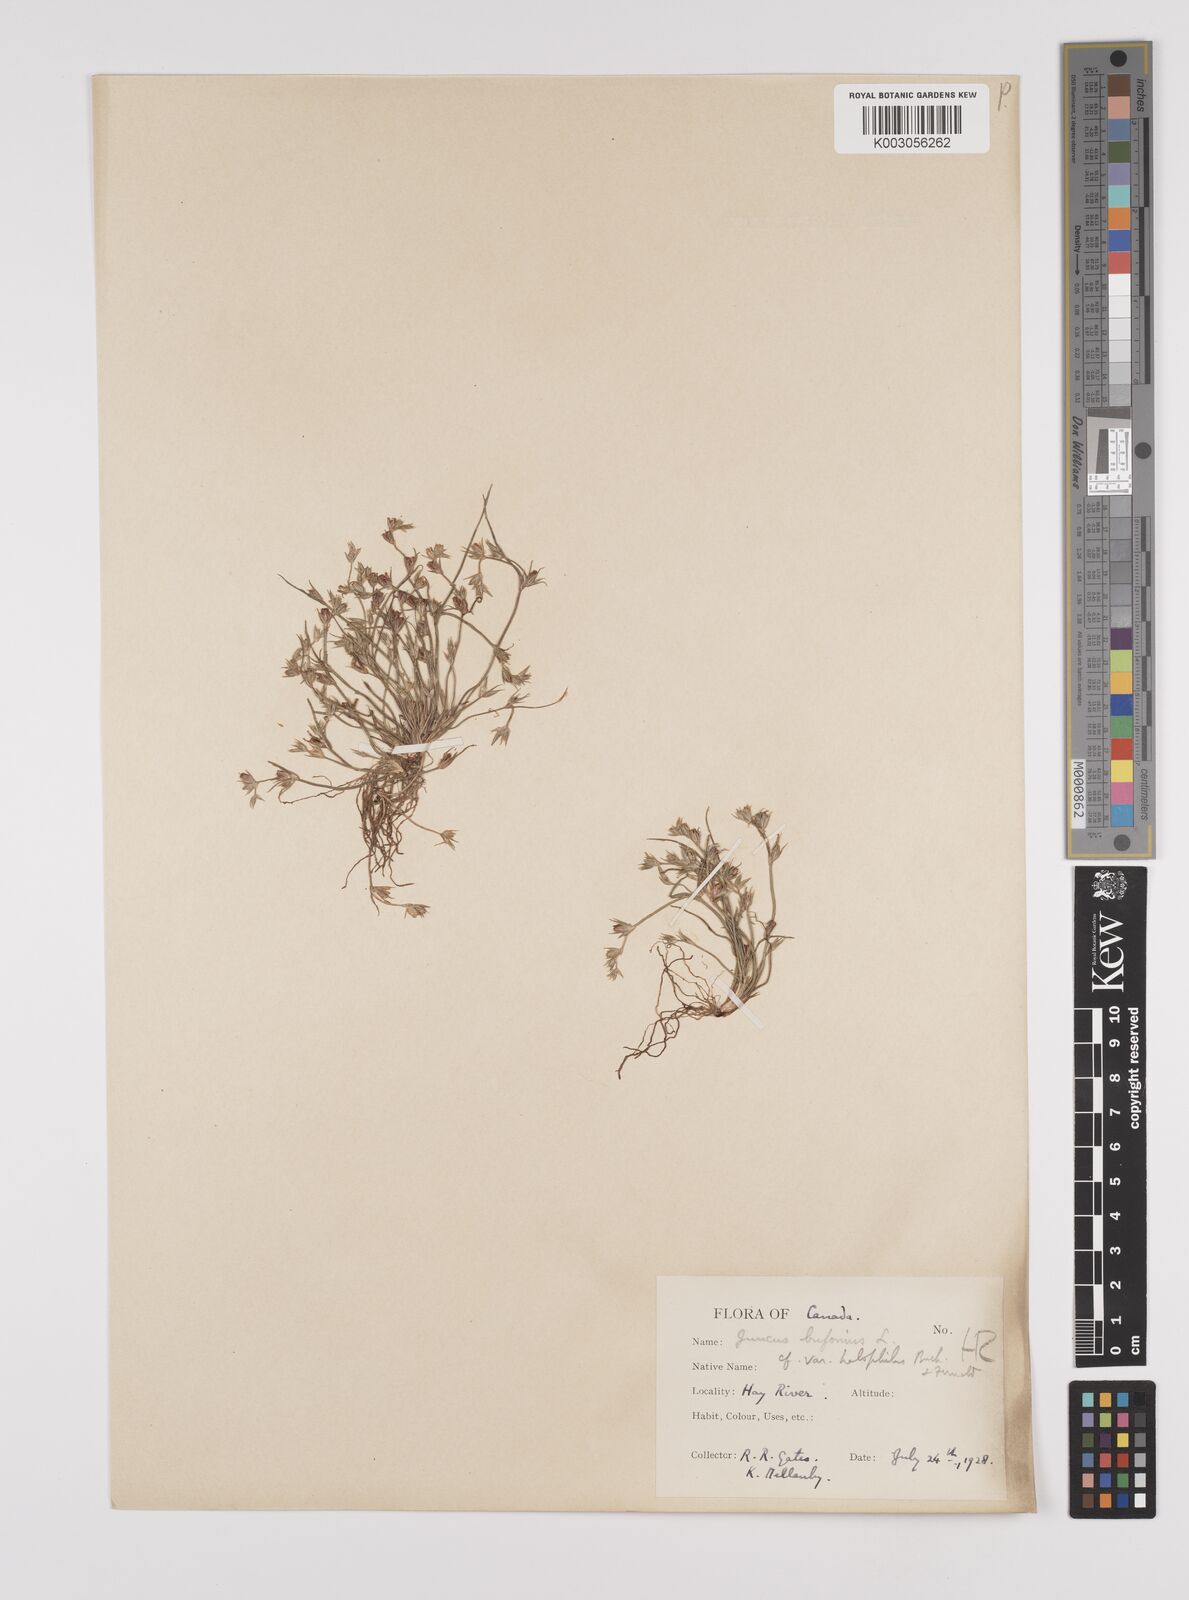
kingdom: Plantae
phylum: Tracheophyta
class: Liliopsida
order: Poales
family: Juncaceae
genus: Juncus
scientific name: Juncus ranarius
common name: Frog rush
